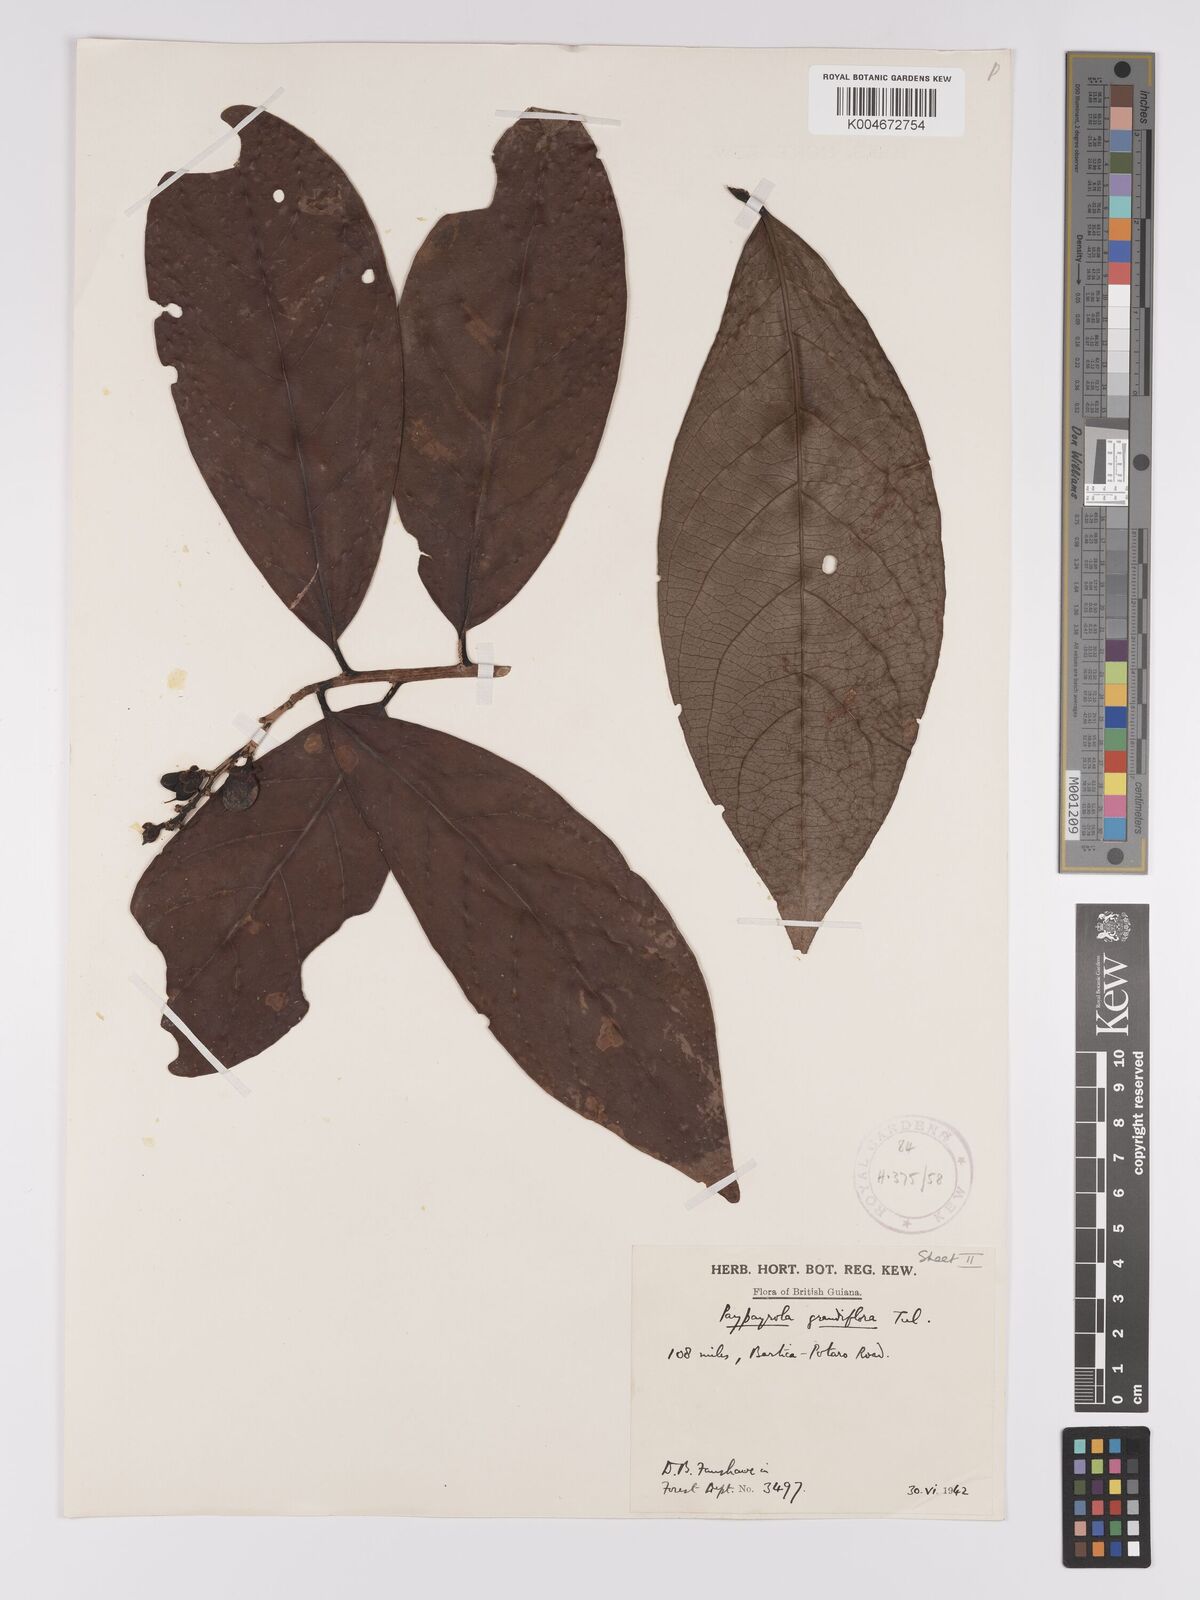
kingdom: Plantae
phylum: Tracheophyta
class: Magnoliopsida
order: Malpighiales
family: Violaceae
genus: Paypayrola
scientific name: Paypayrola grandiflora
